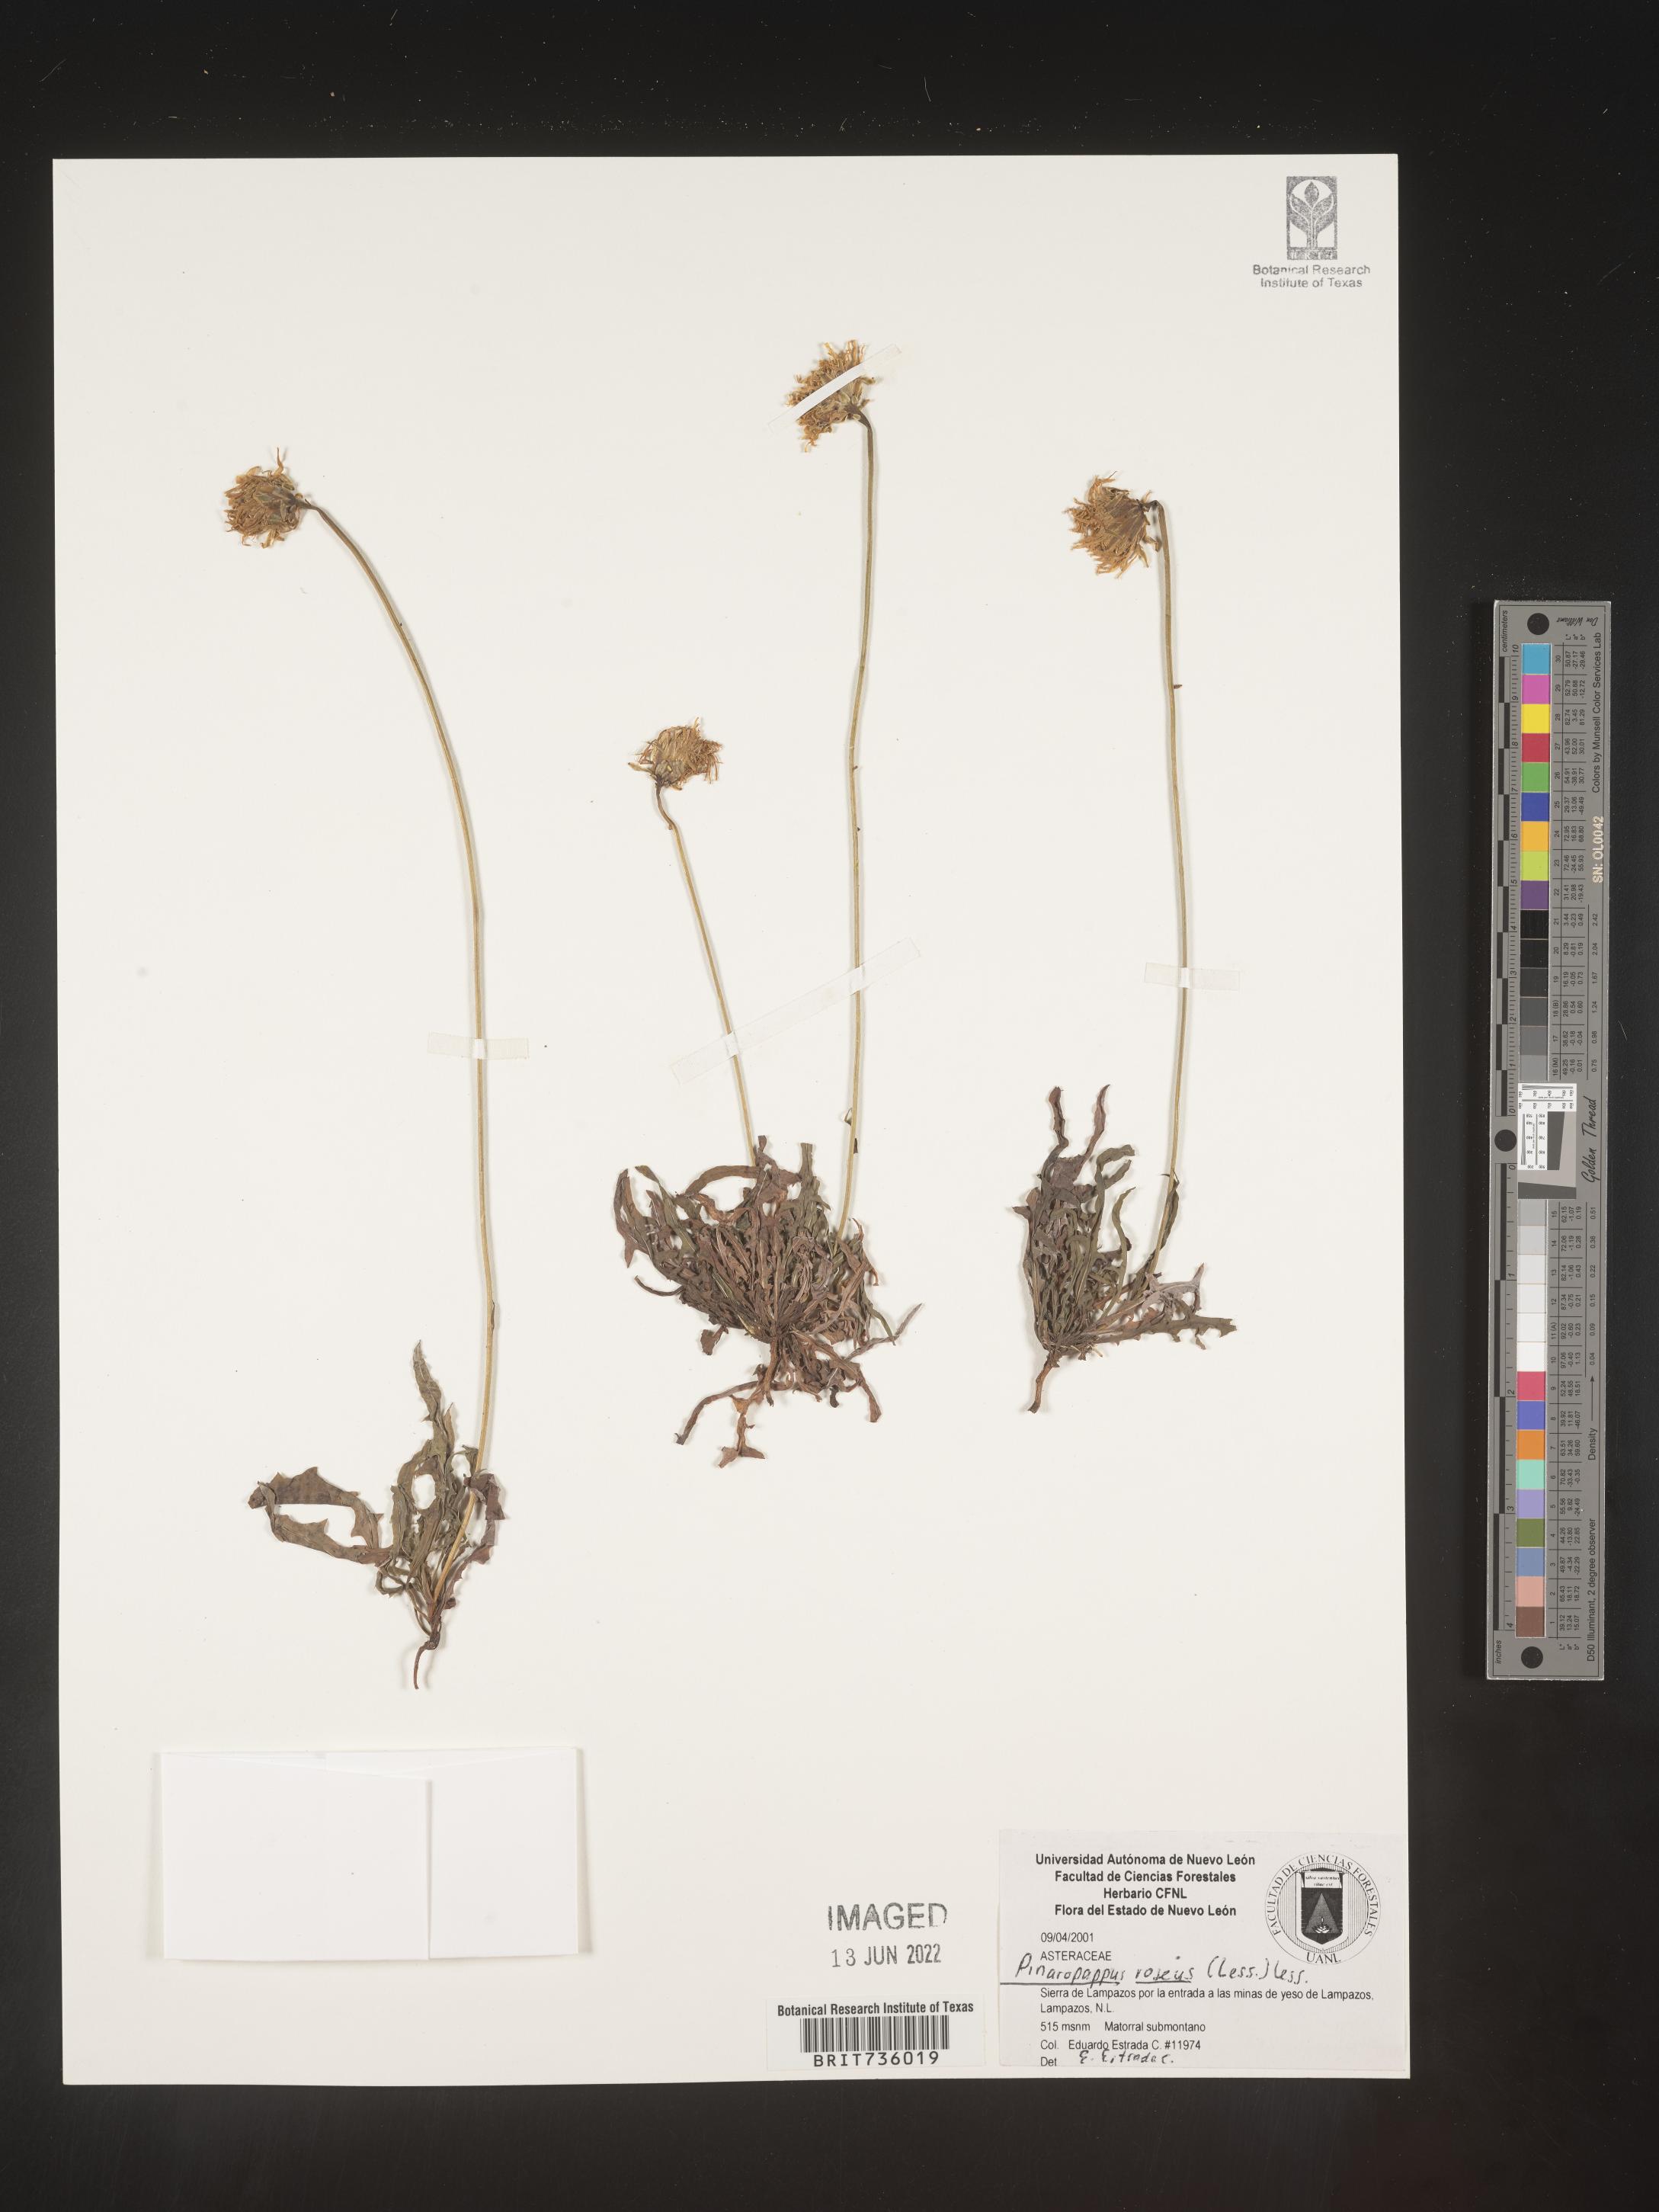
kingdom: Plantae
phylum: Tracheophyta
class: Magnoliopsida
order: Asterales
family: Asteraceae
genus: Pinaropappus
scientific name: Pinaropappus
